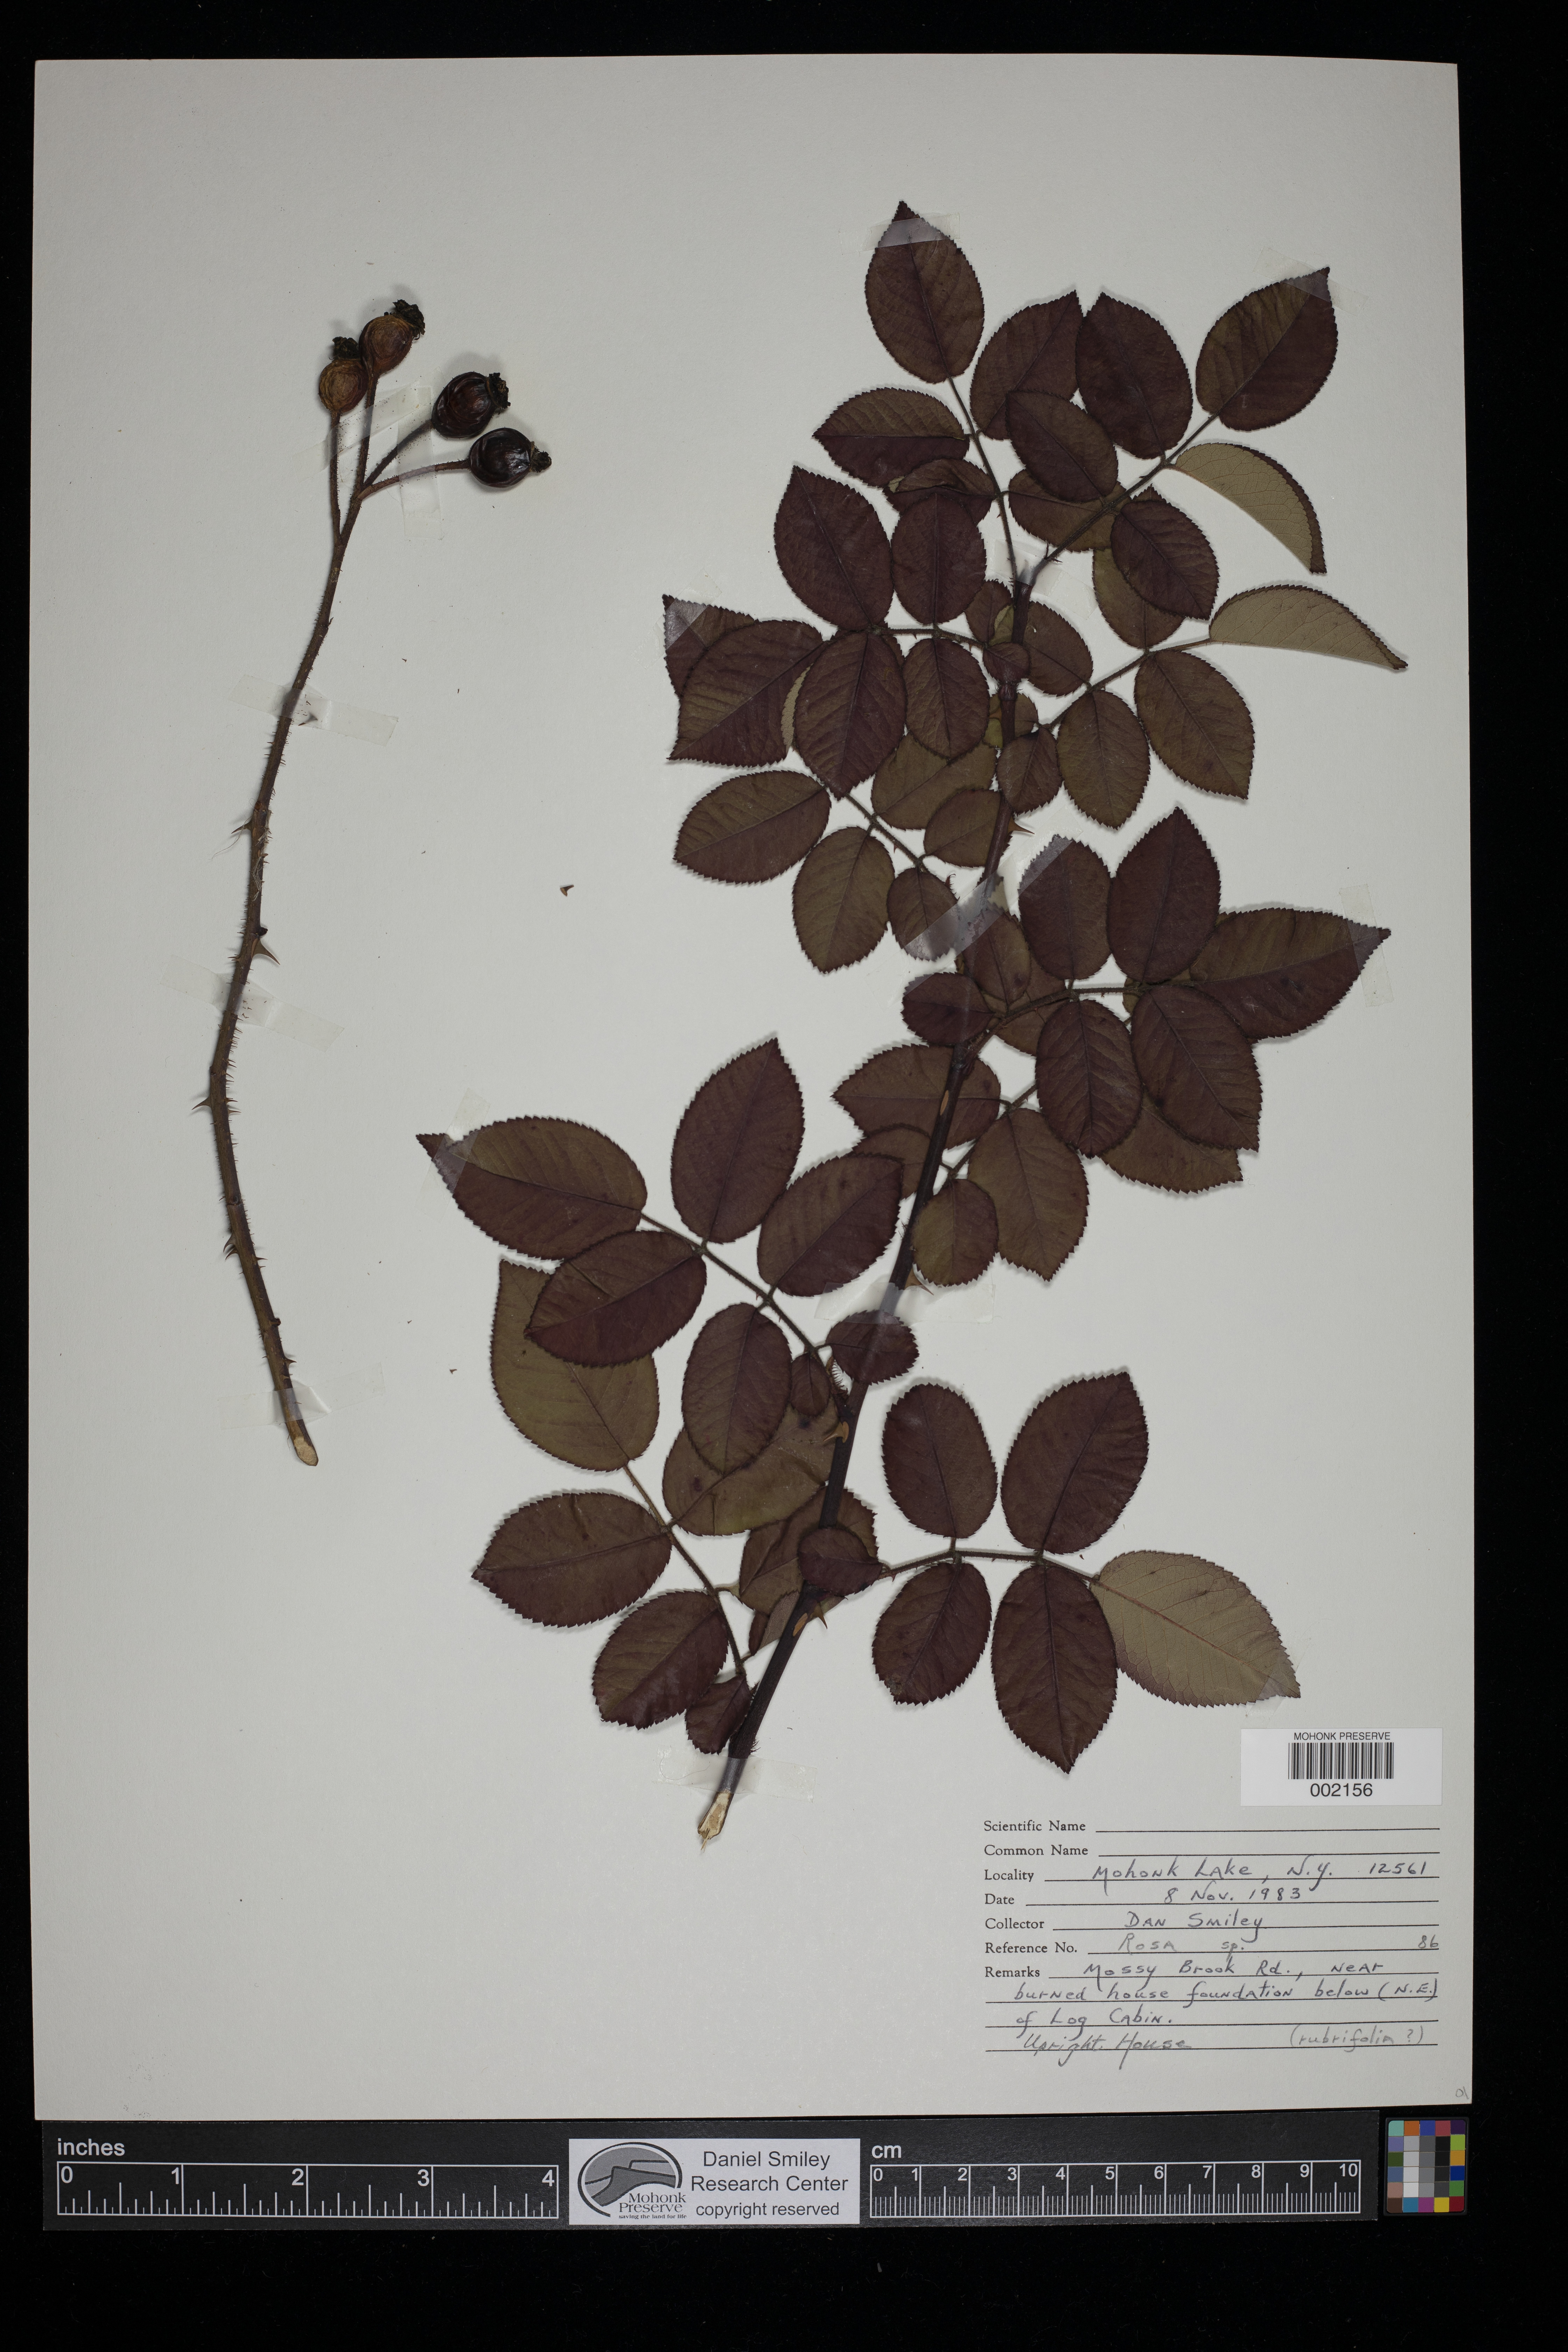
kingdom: Plantae
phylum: Tracheophyta
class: Magnoliopsida
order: Rosales
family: Rosaceae
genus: Rosa
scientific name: Rosa glauca
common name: Redleaf rose
